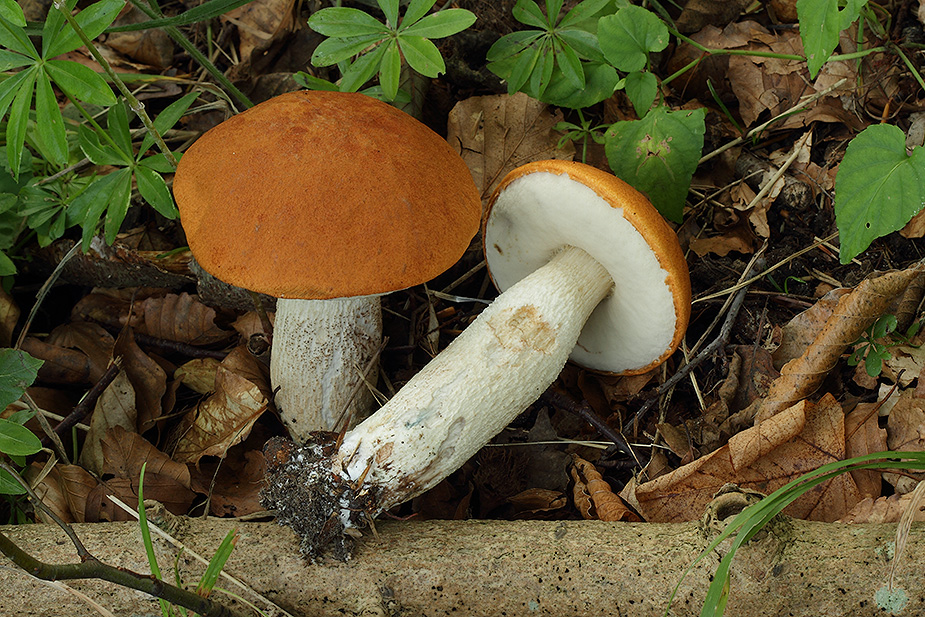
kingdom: Fungi
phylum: Basidiomycota
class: Agaricomycetes
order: Boletales
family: Boletaceae
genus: Leccinum
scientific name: Leccinum albostipitatum
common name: aspe-skælrørhat
